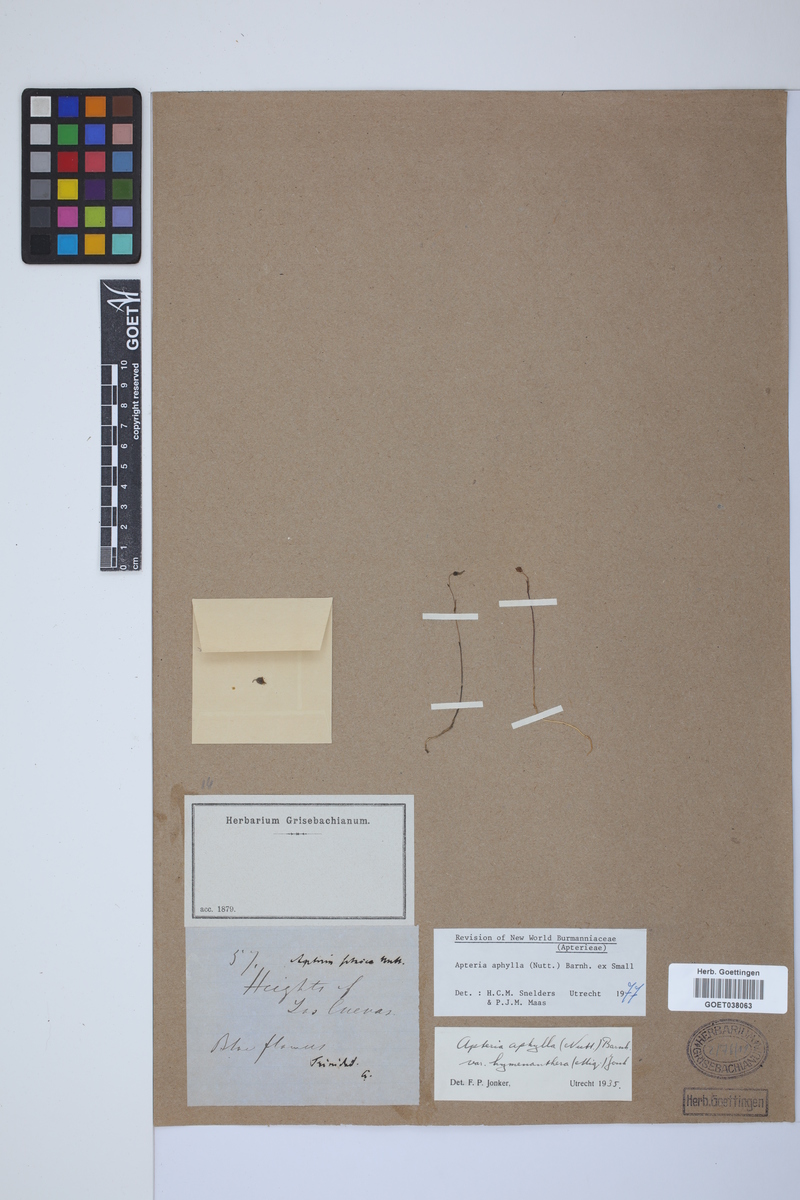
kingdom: Plantae
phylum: Tracheophyta
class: Liliopsida
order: Dioscoreales
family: Burmanniaceae
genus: Apteria
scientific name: Apteria aphylla
